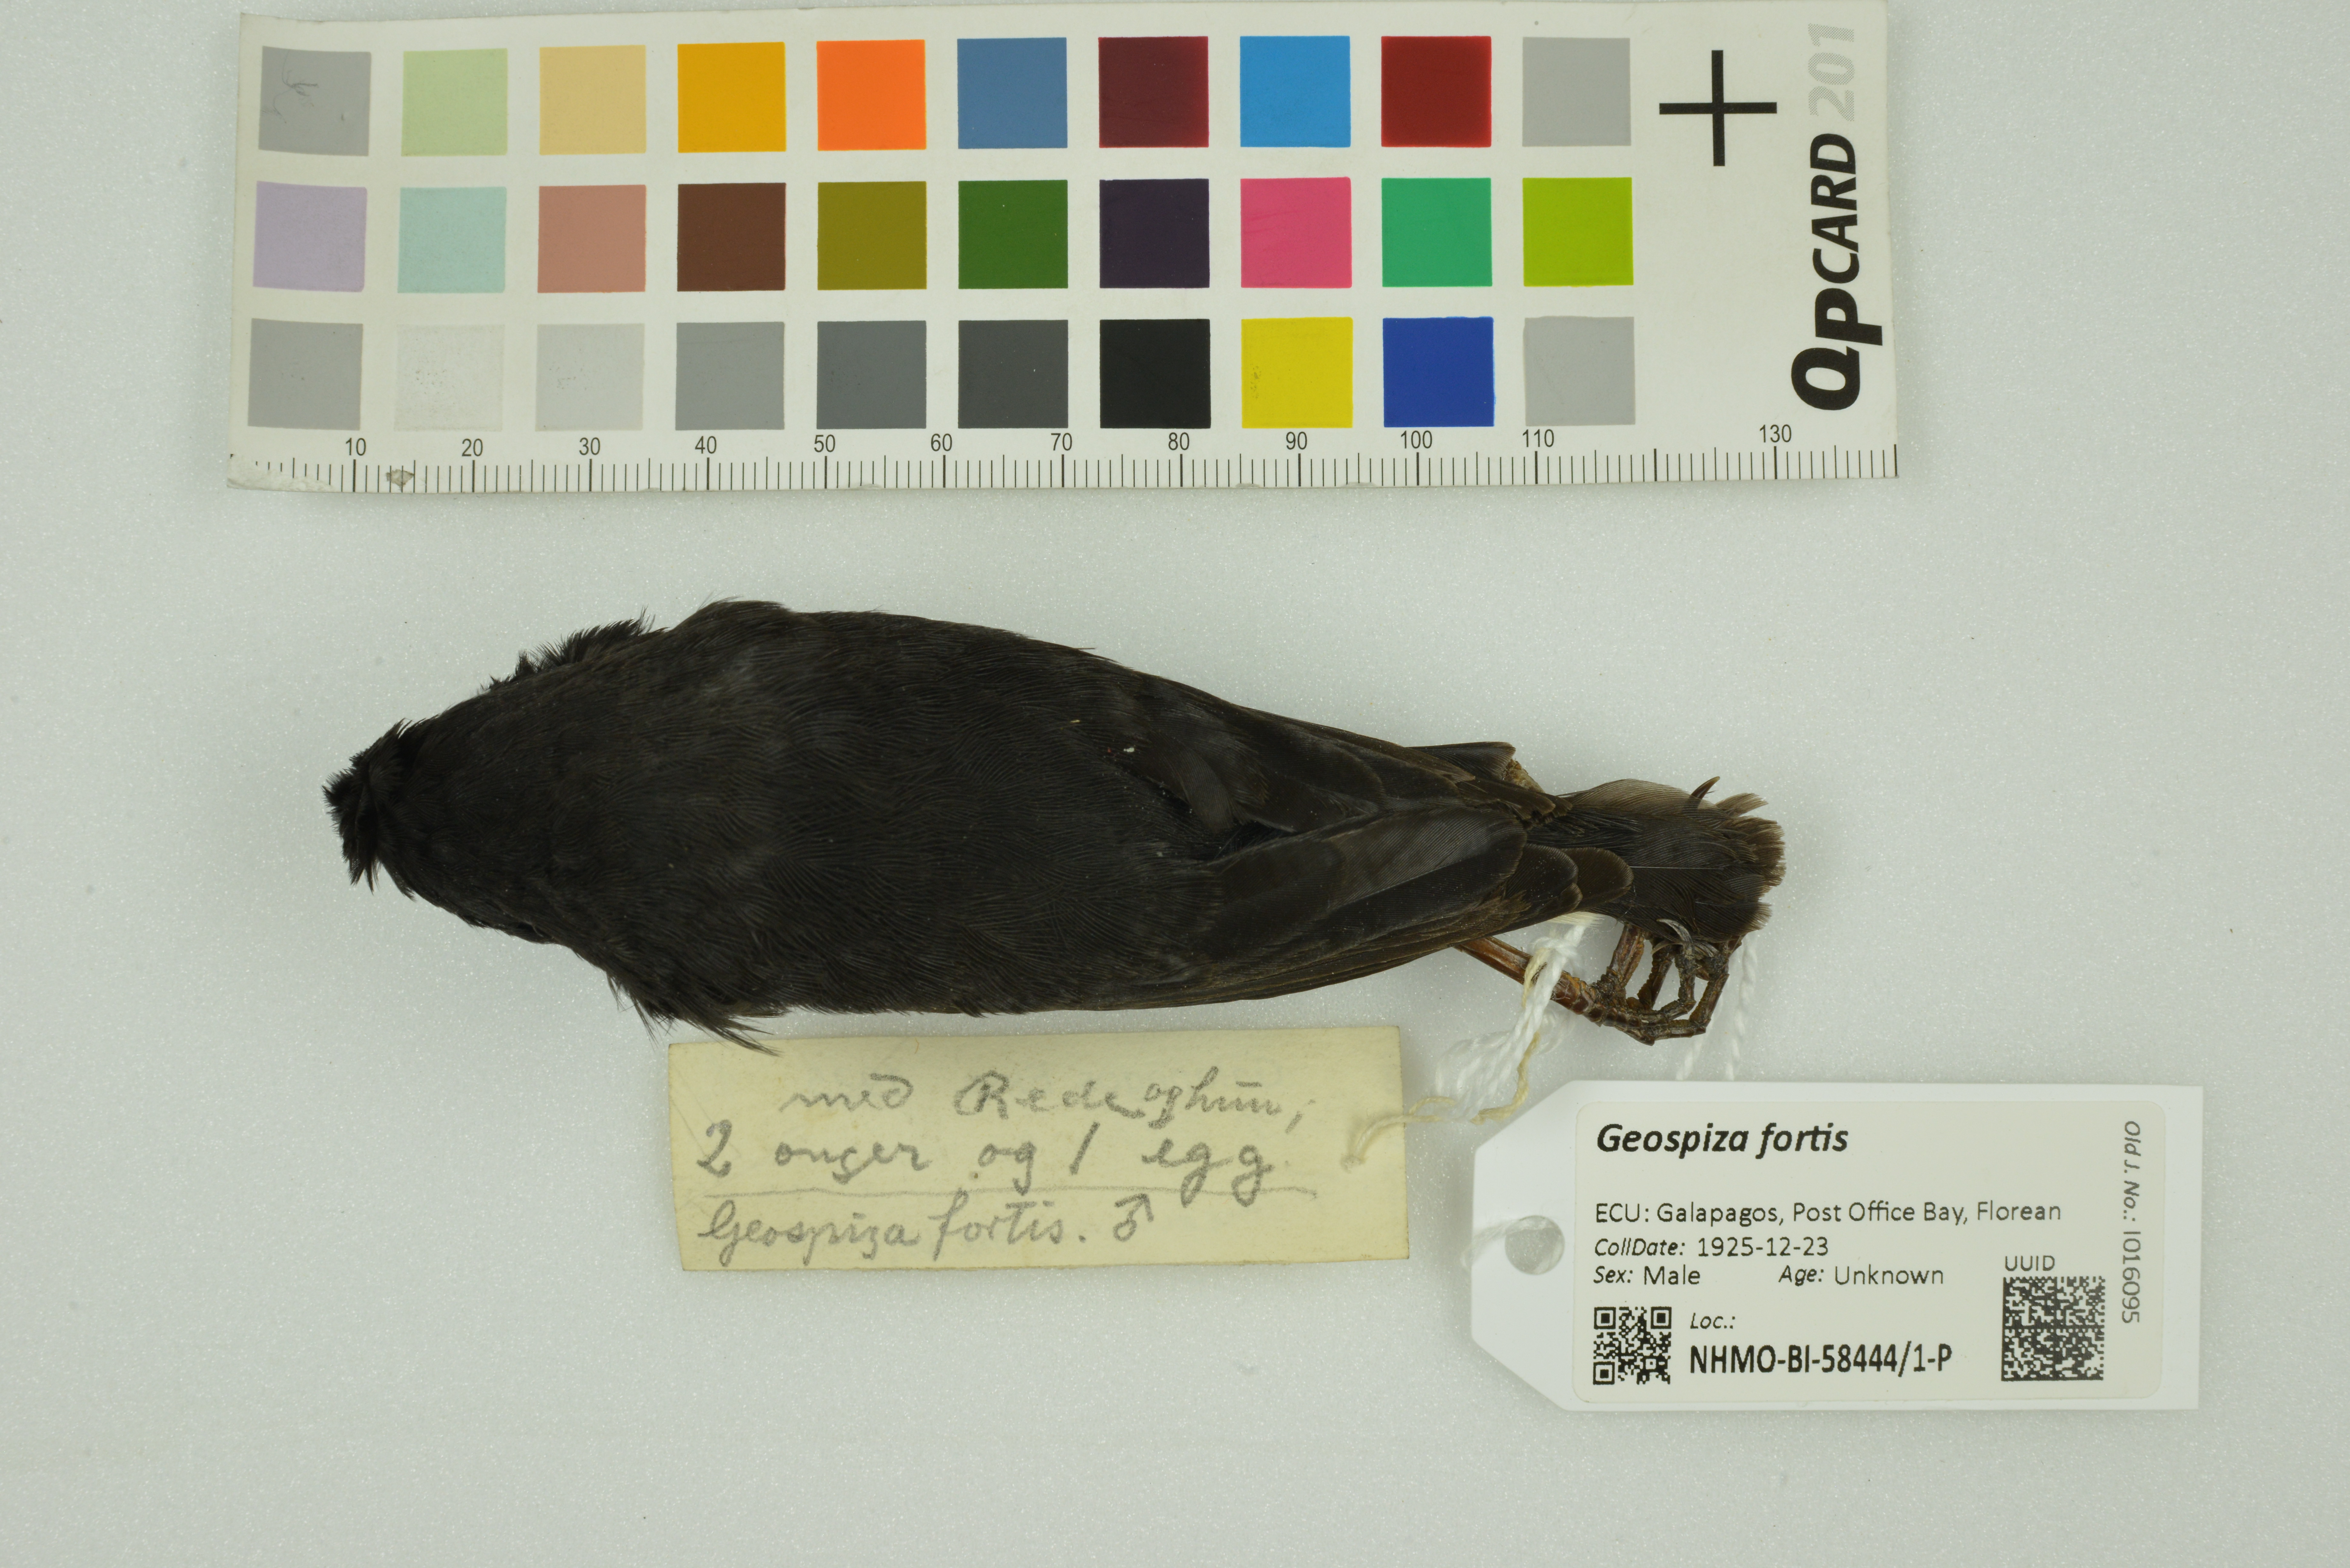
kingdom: Animalia
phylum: Chordata
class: Aves
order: Passeriformes
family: Thraupidae
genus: Geospiza
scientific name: Geospiza fortis
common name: Medium ground finch
